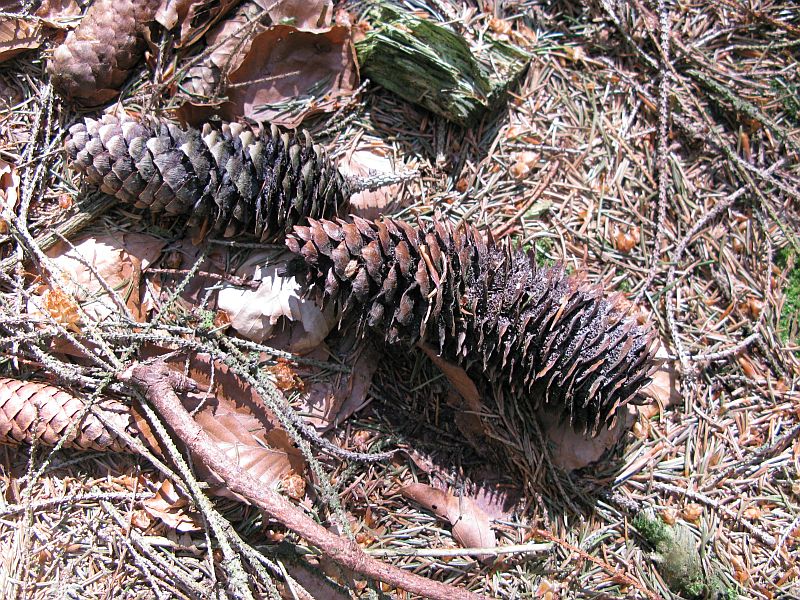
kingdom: Fungi
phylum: Basidiomycota
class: Pucciniomycetes
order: Pucciniales
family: Pucciniastraceae
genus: Thekopsora
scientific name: Thekopsora areolata
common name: grankogle-nålerust
